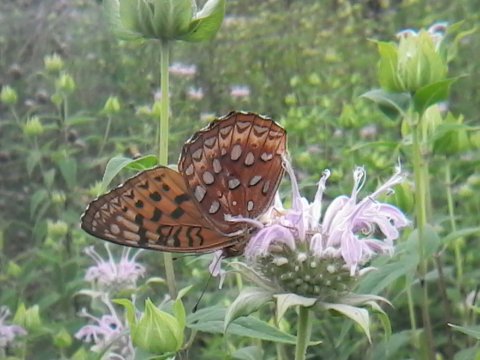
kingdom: Animalia
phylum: Arthropoda
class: Insecta
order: Lepidoptera
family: Nymphalidae
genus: Speyeria
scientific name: Speyeria atlantis
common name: Atlantis Fritillary
